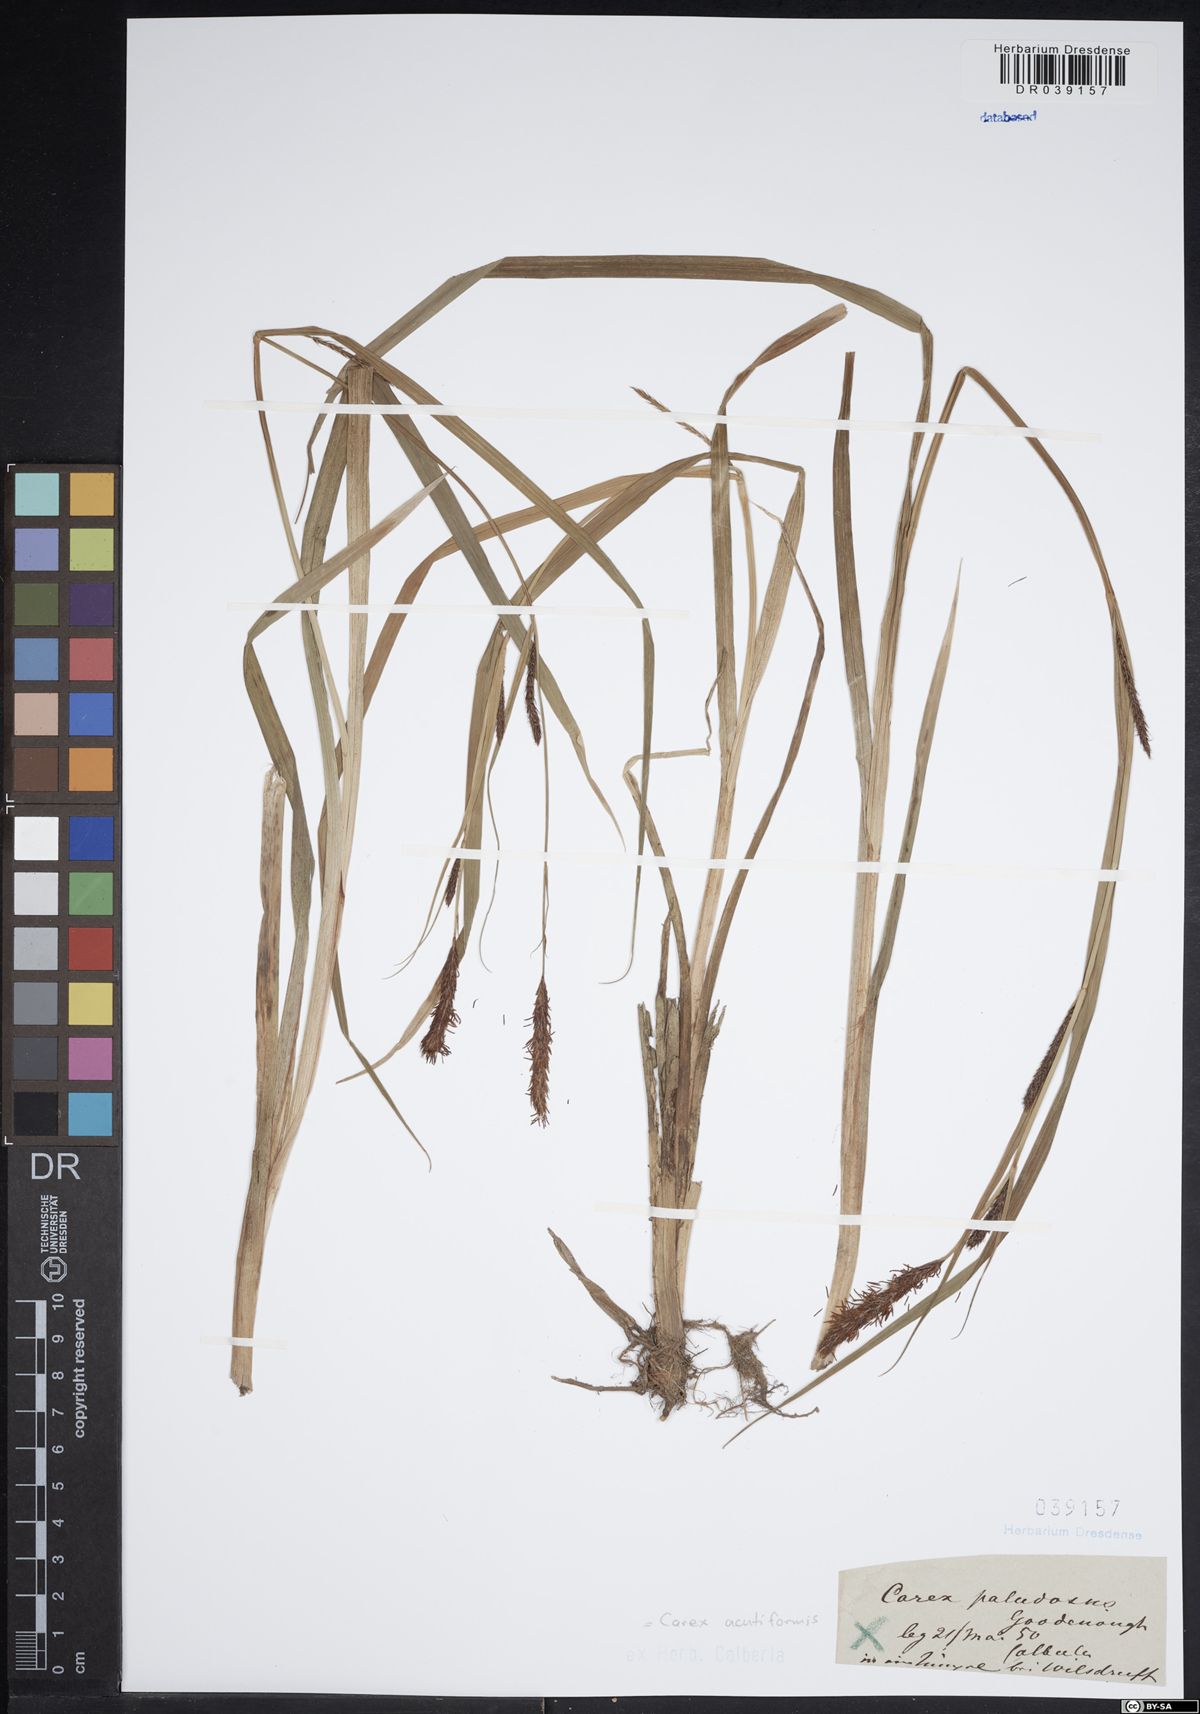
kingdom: Plantae
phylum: Tracheophyta
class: Liliopsida
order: Poales
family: Cyperaceae
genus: Carex
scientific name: Carex acutiformis
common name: Lesser pond-sedge
